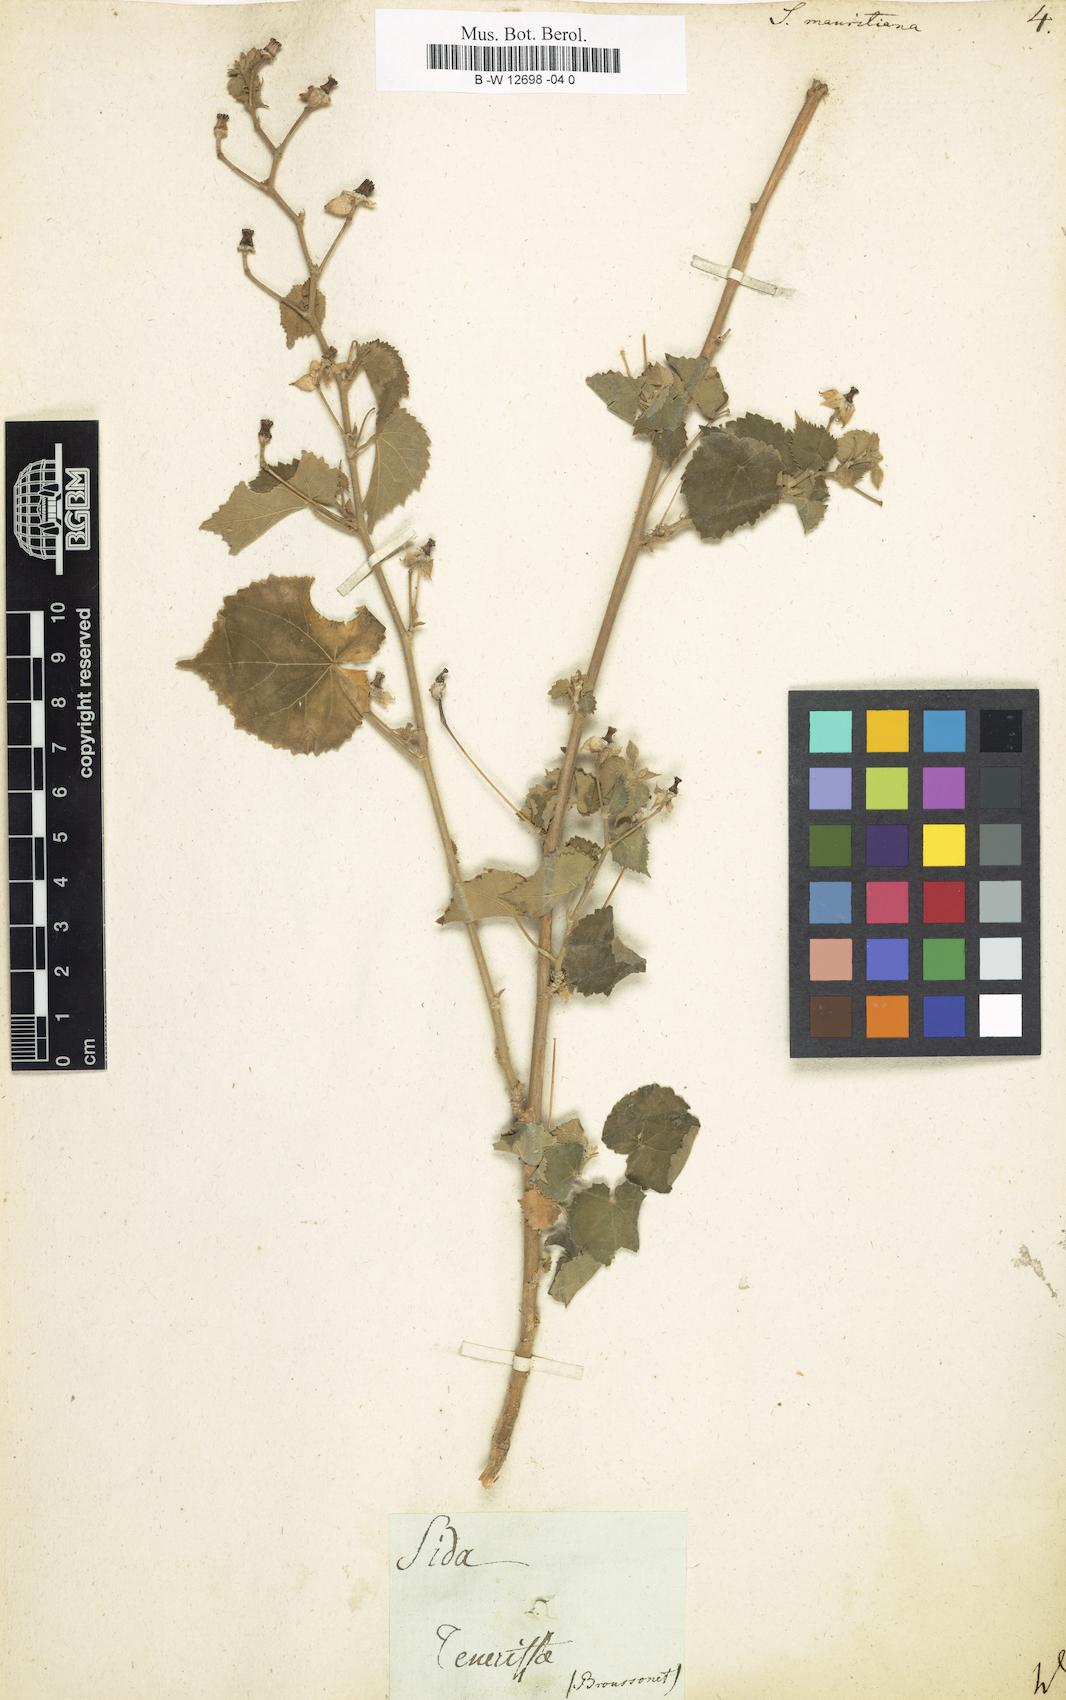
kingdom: Plantae
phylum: Tracheophyta
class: Magnoliopsida
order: Malvales
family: Malvaceae
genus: Abutilon
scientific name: Abutilon mauritianum
